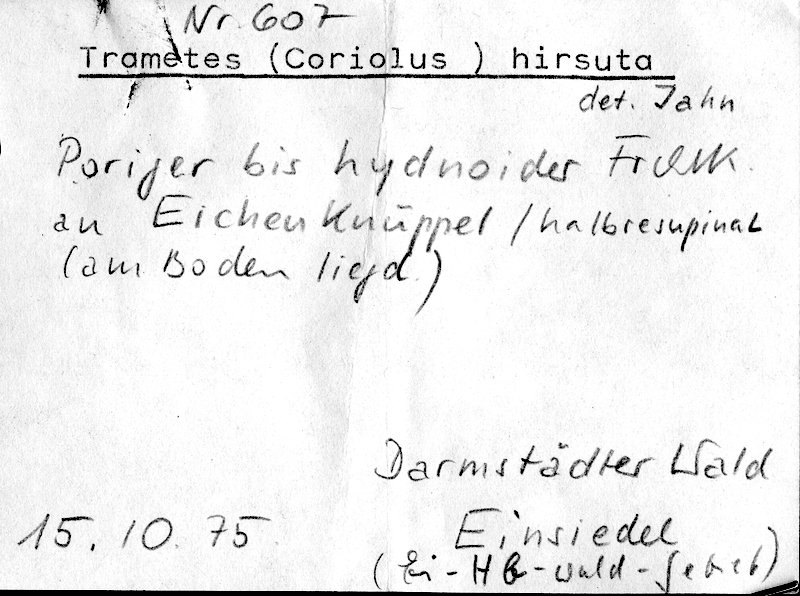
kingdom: Fungi
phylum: Basidiomycota
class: Agaricomycetes
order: Polyporales
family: Polyporaceae
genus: Trametes
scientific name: Trametes hirsuta
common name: Hairy bracket
